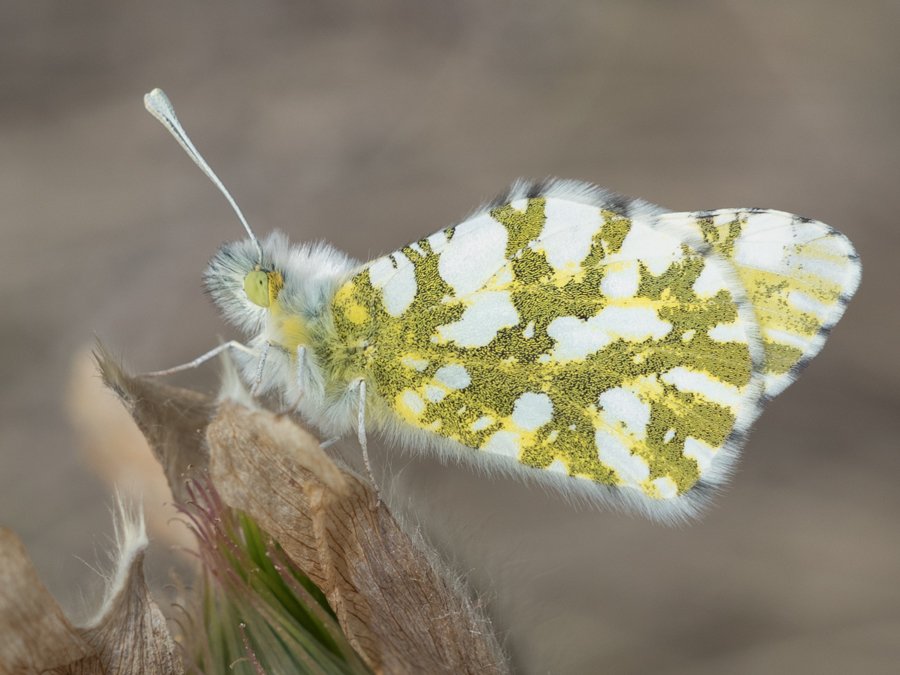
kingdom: Animalia
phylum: Arthropoda
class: Insecta
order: Lepidoptera
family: Pieridae
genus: Euchloe
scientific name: Euchloe ausonides
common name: Large Marble
